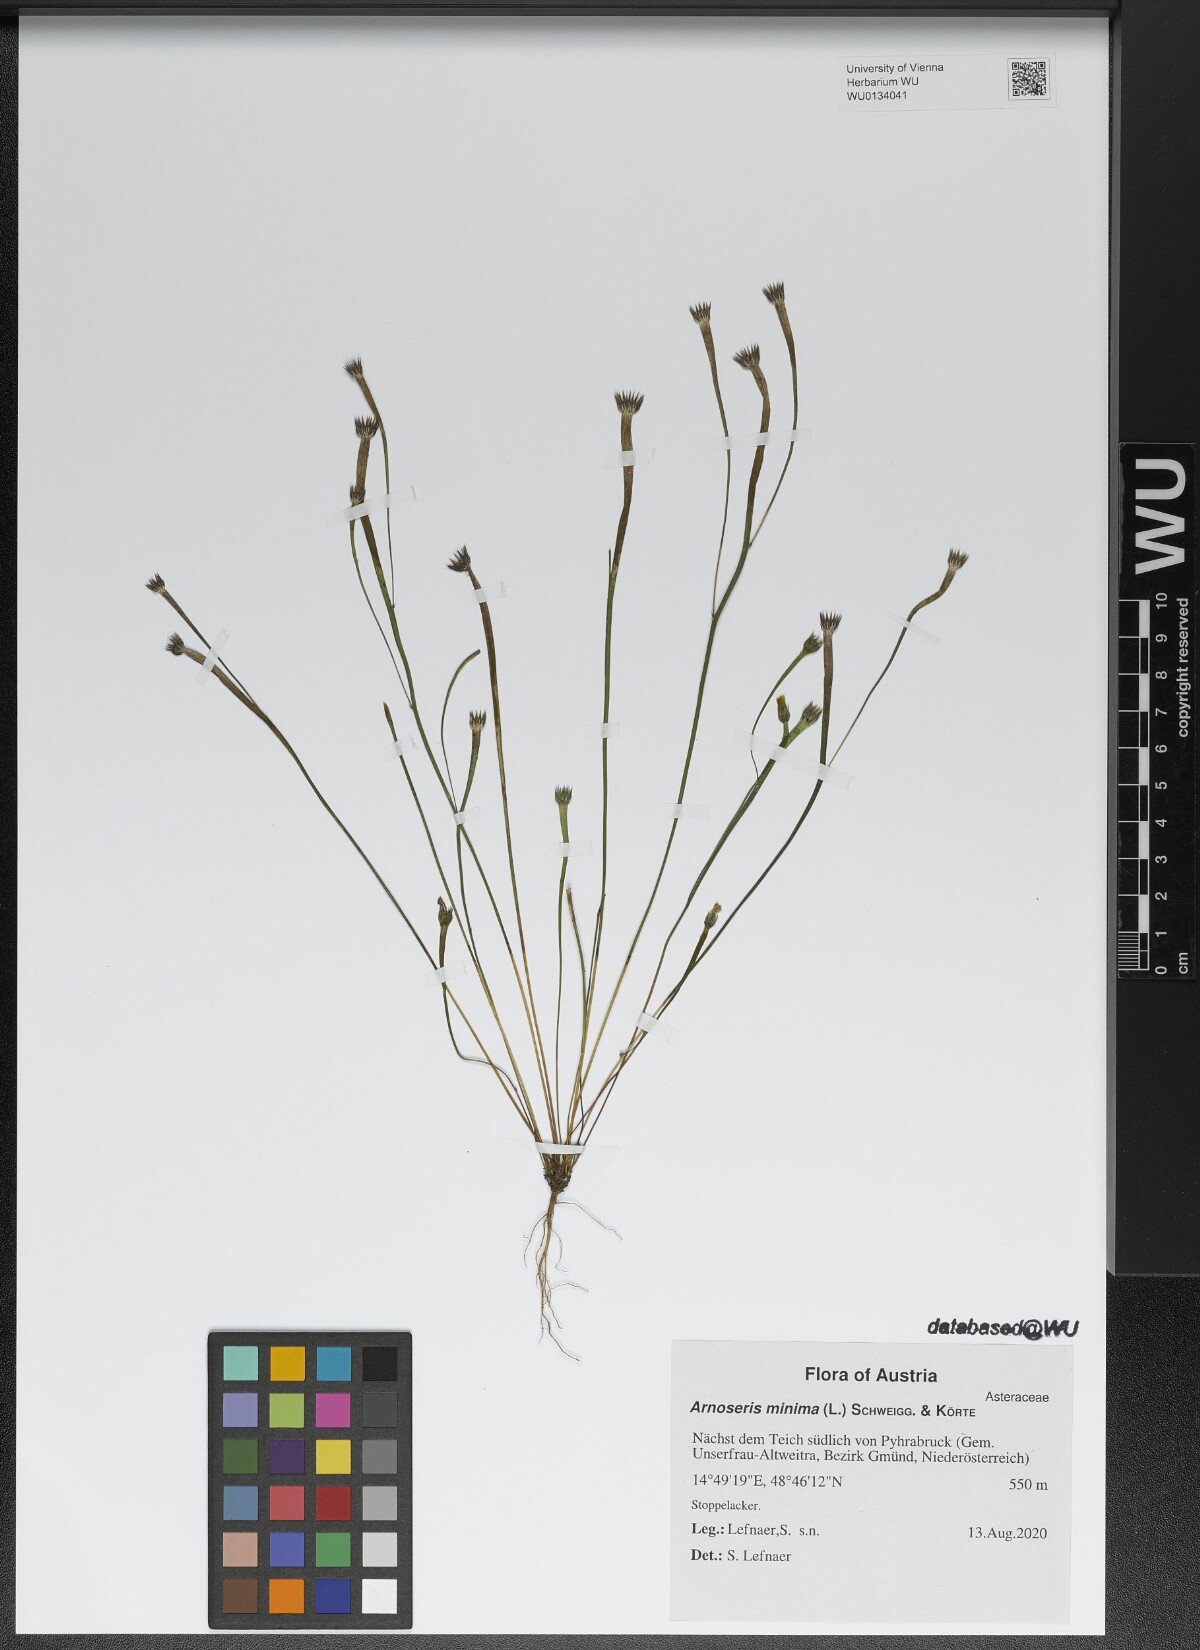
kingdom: Plantae
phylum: Tracheophyta
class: Magnoliopsida
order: Asterales
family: Asteraceae
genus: Arnoseris
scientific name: Arnoseris minima
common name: Lamb's succory
